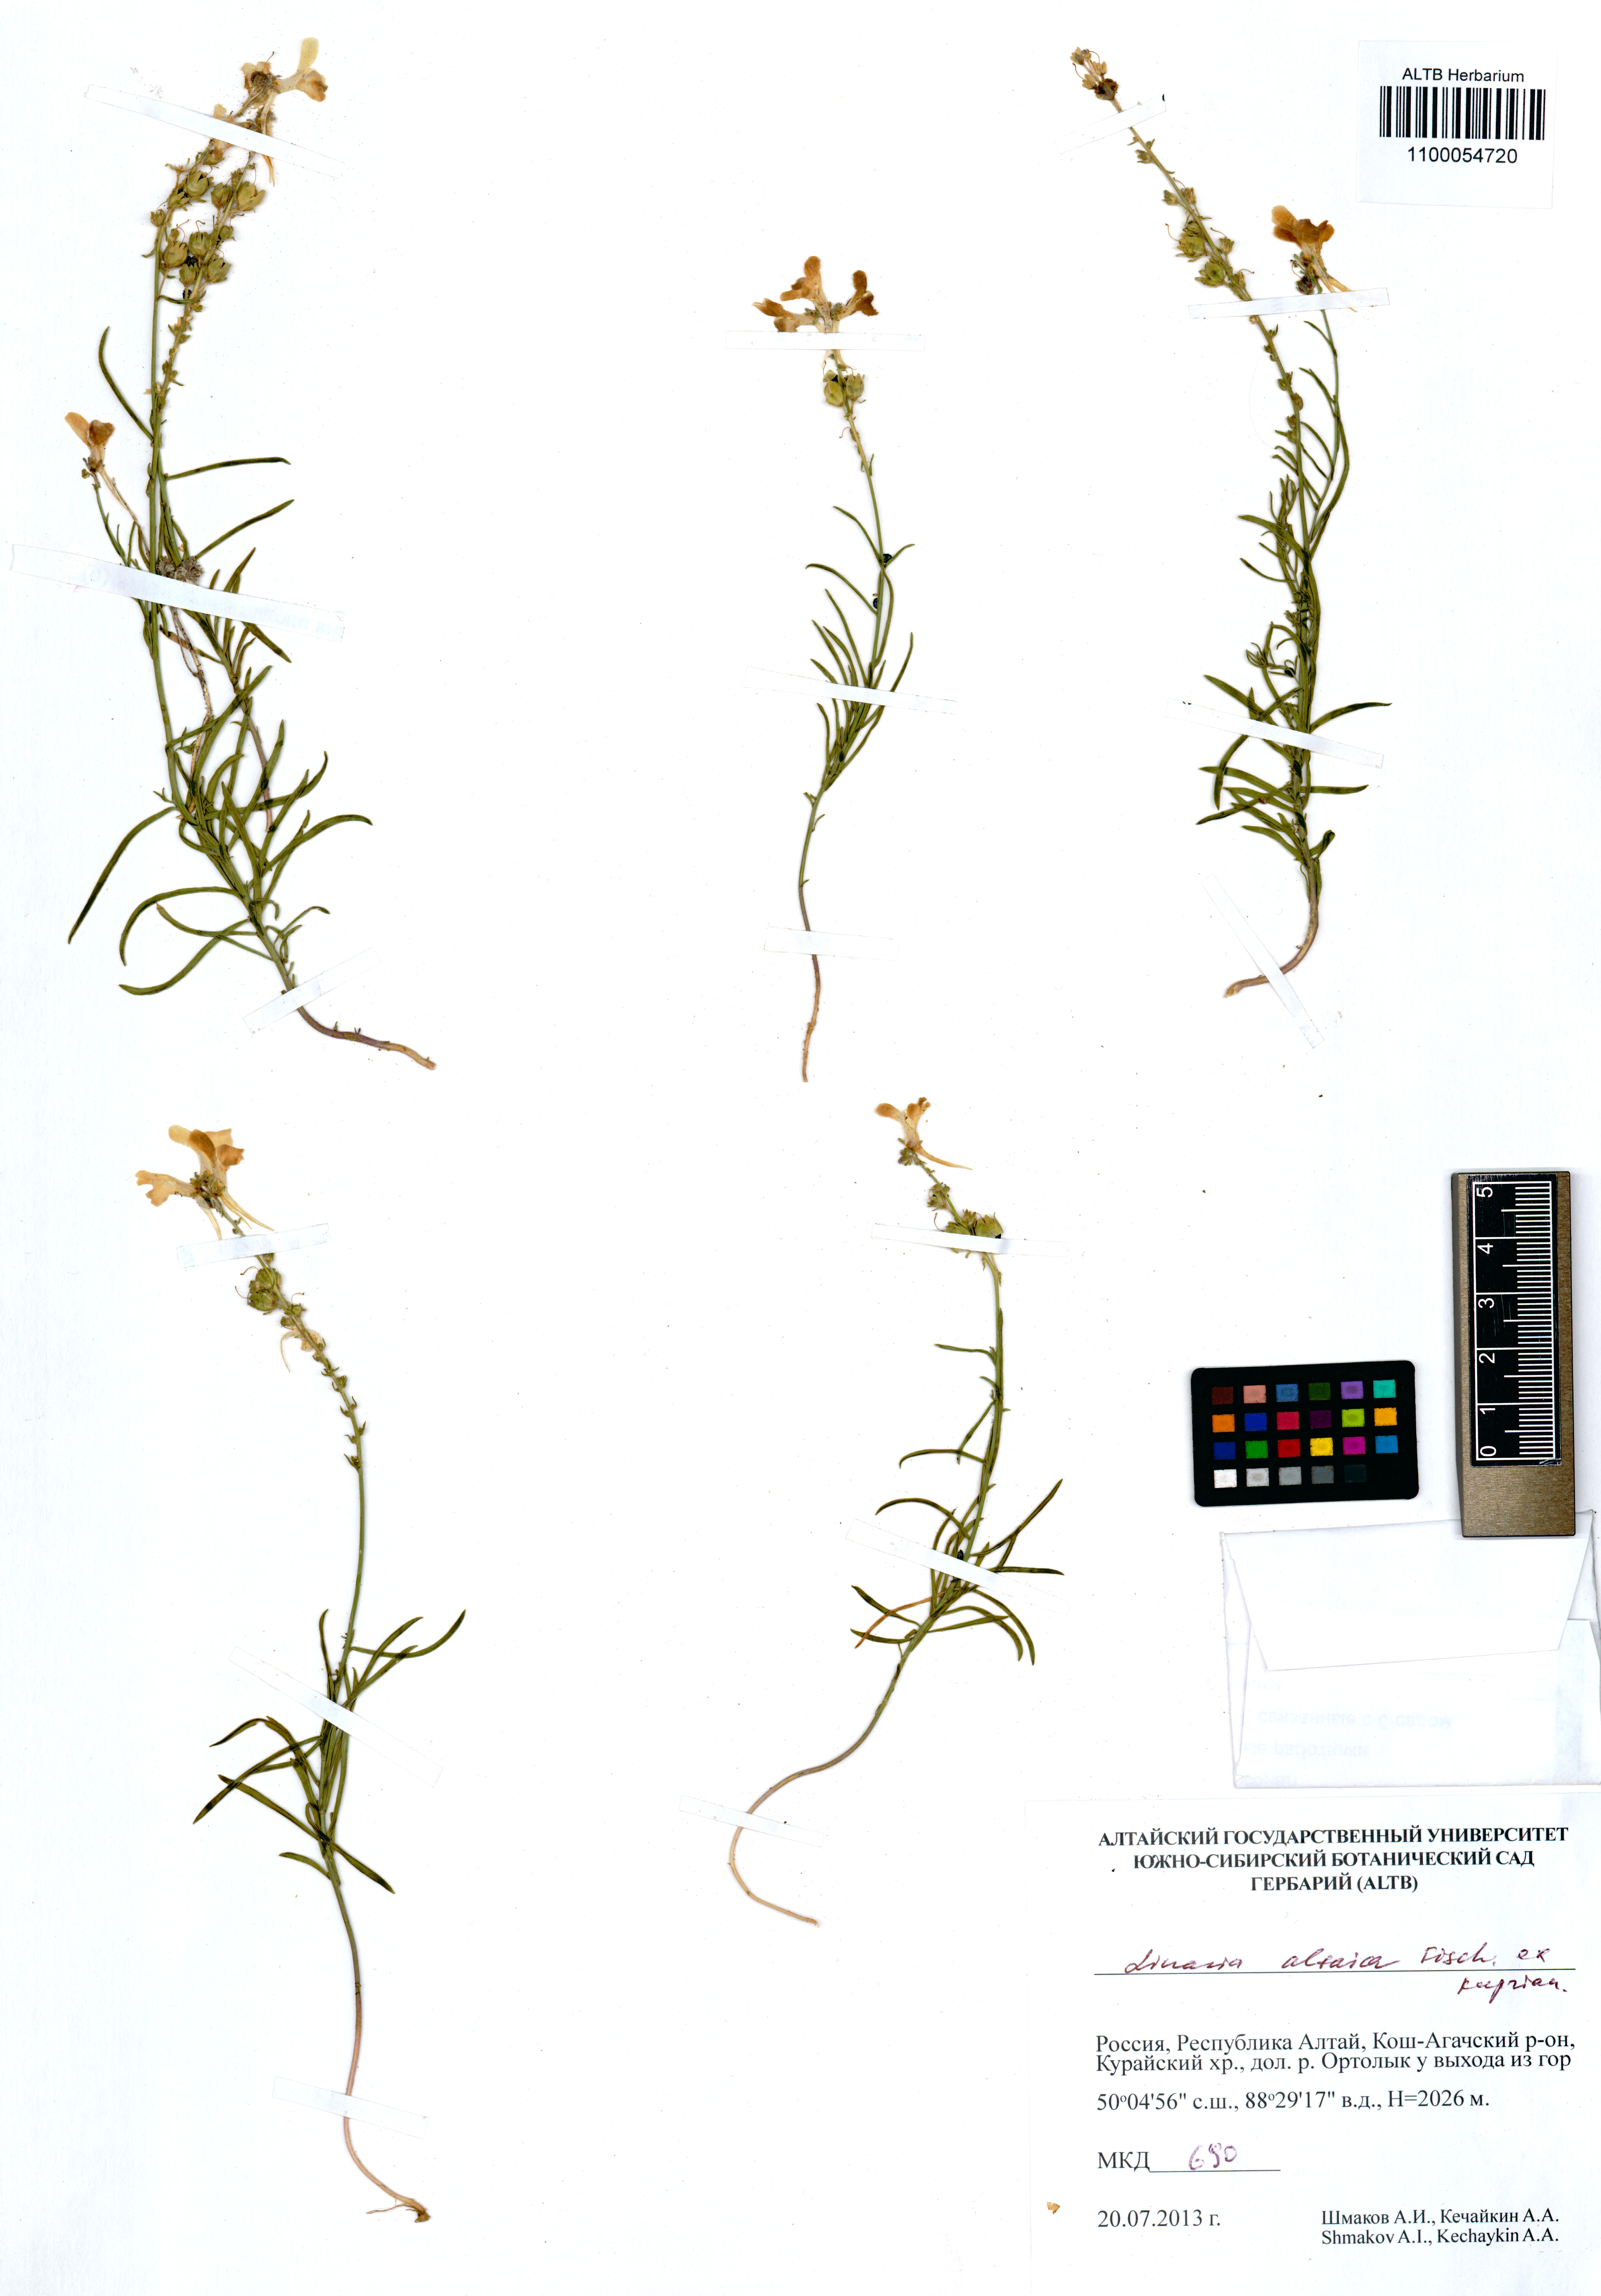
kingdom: Plantae
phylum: Tracheophyta
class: Magnoliopsida
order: Lamiales
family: Plantaginaceae
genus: Linaria
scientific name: Linaria altaica
